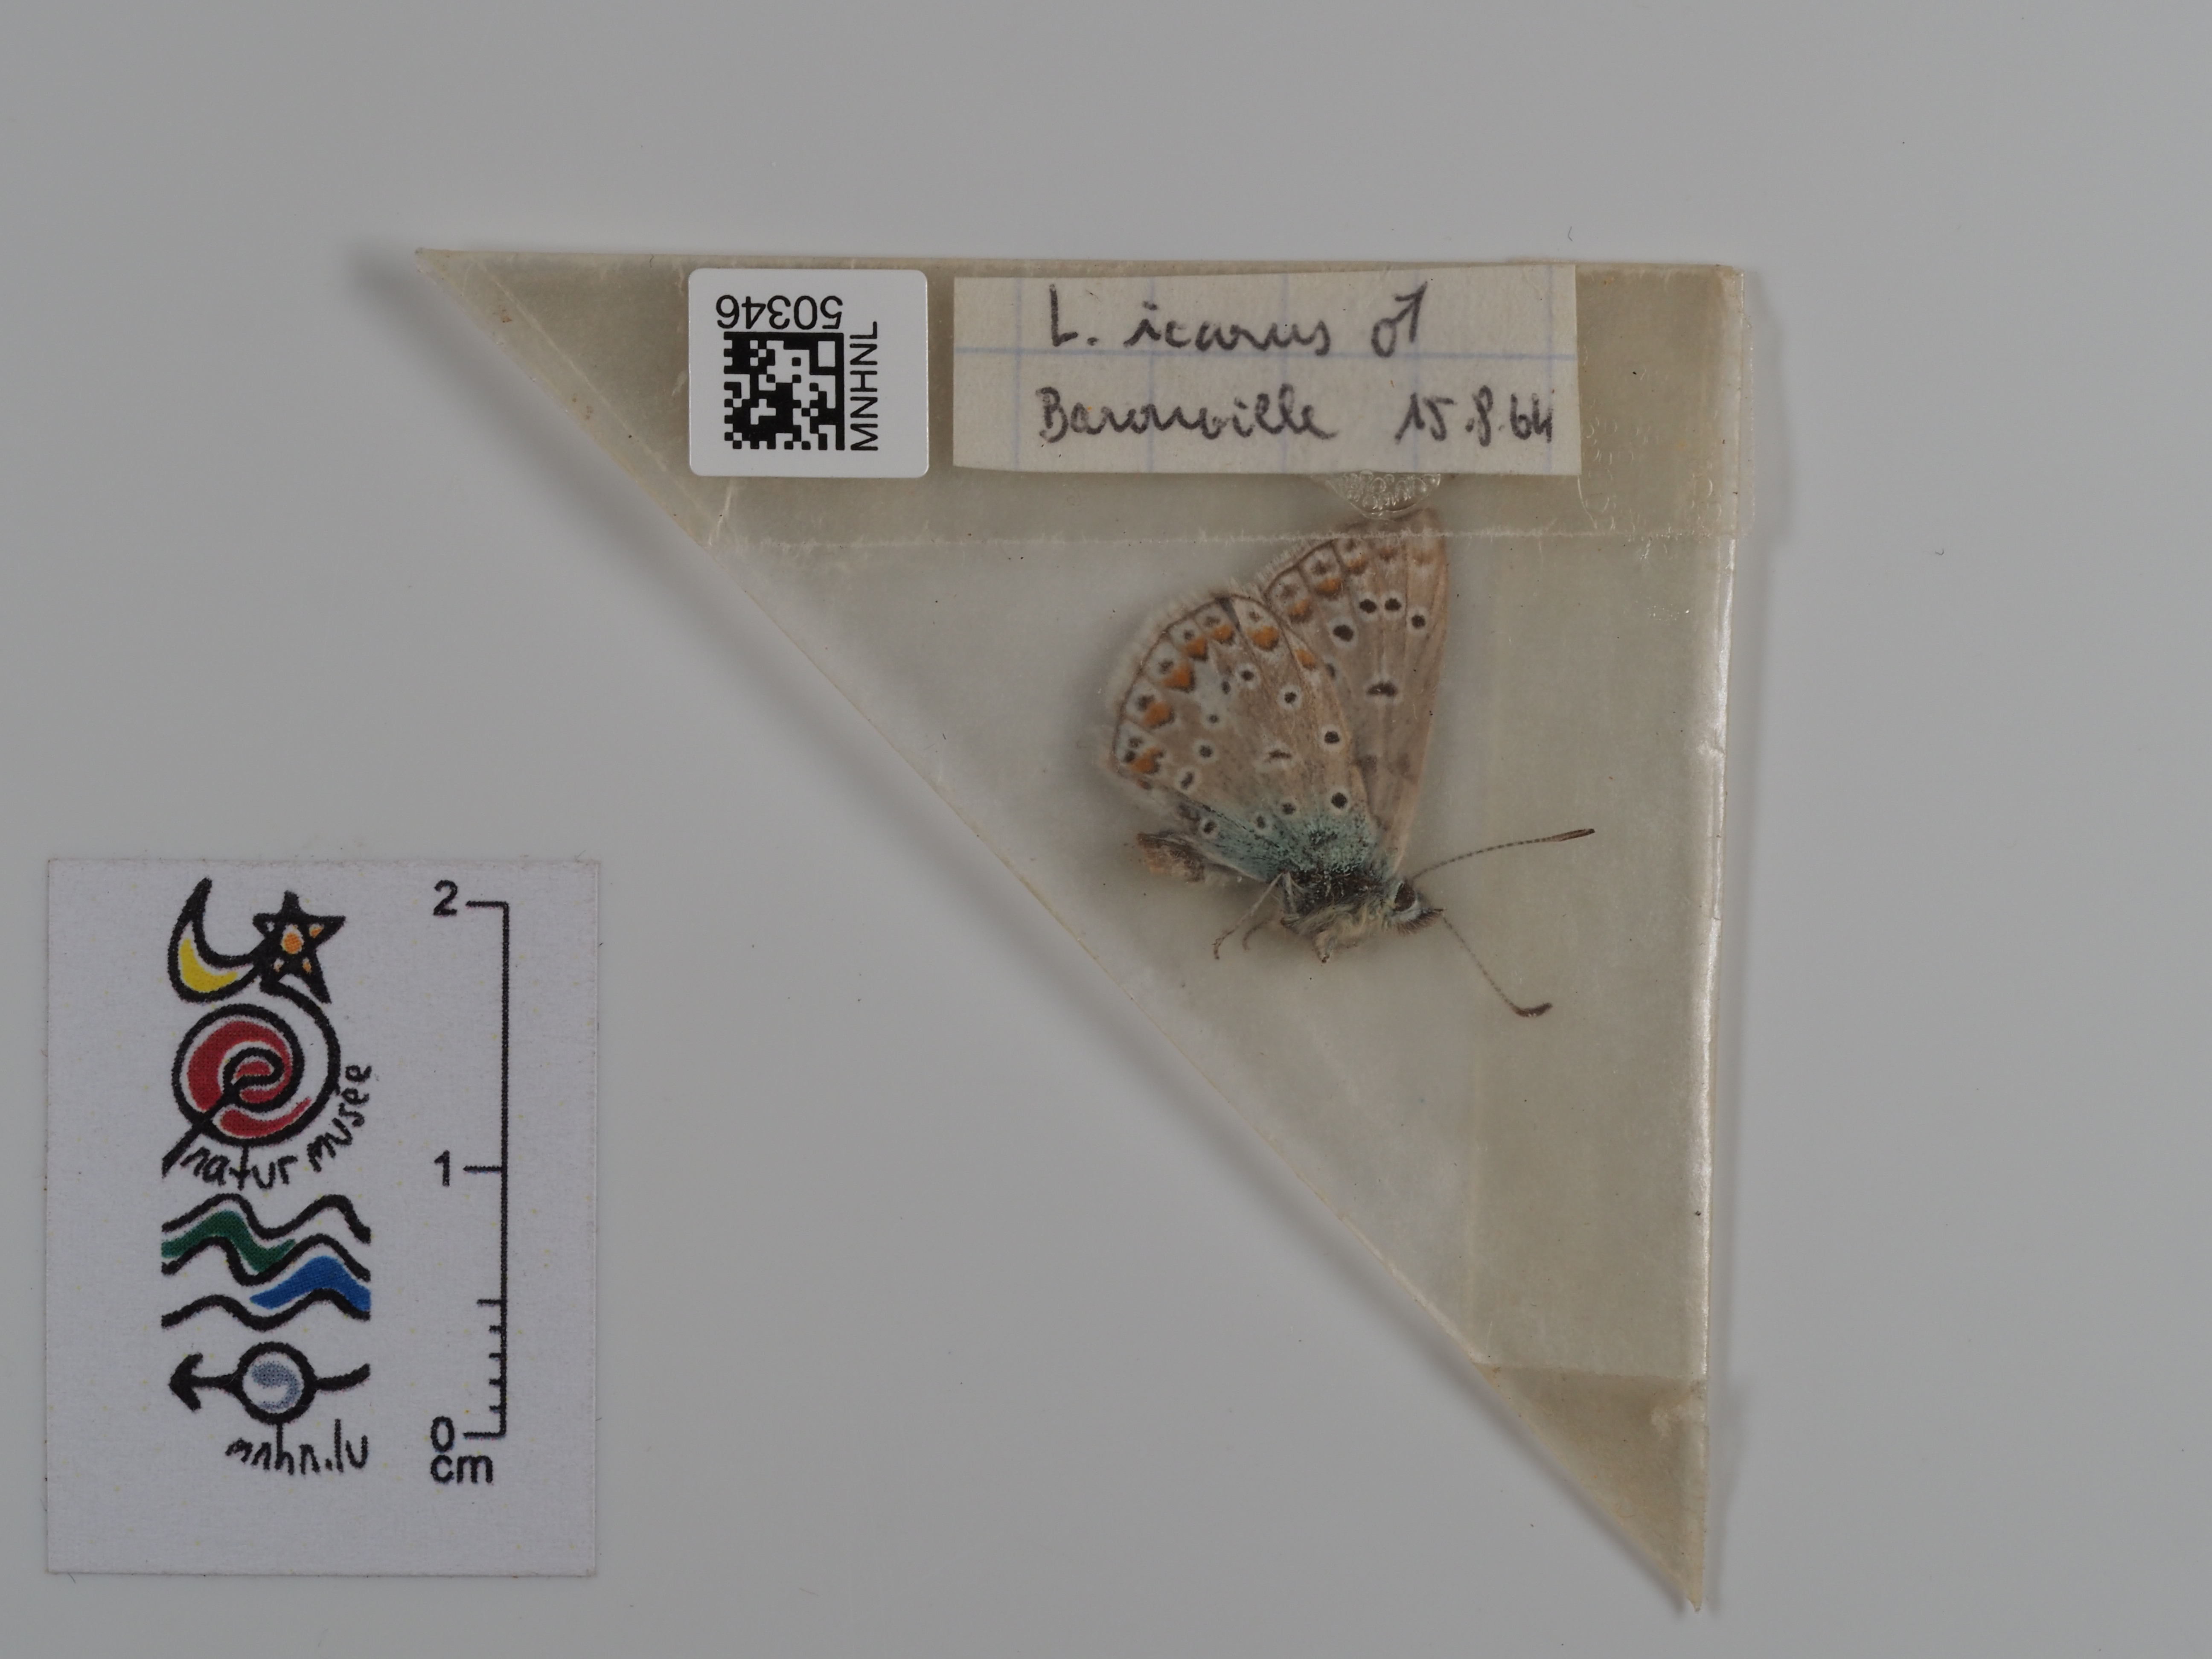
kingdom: Animalia
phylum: Arthropoda
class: Insecta
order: Lepidoptera
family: Lycaenidae
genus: Polyommatus
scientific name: Polyommatus icarus
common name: Common blue
